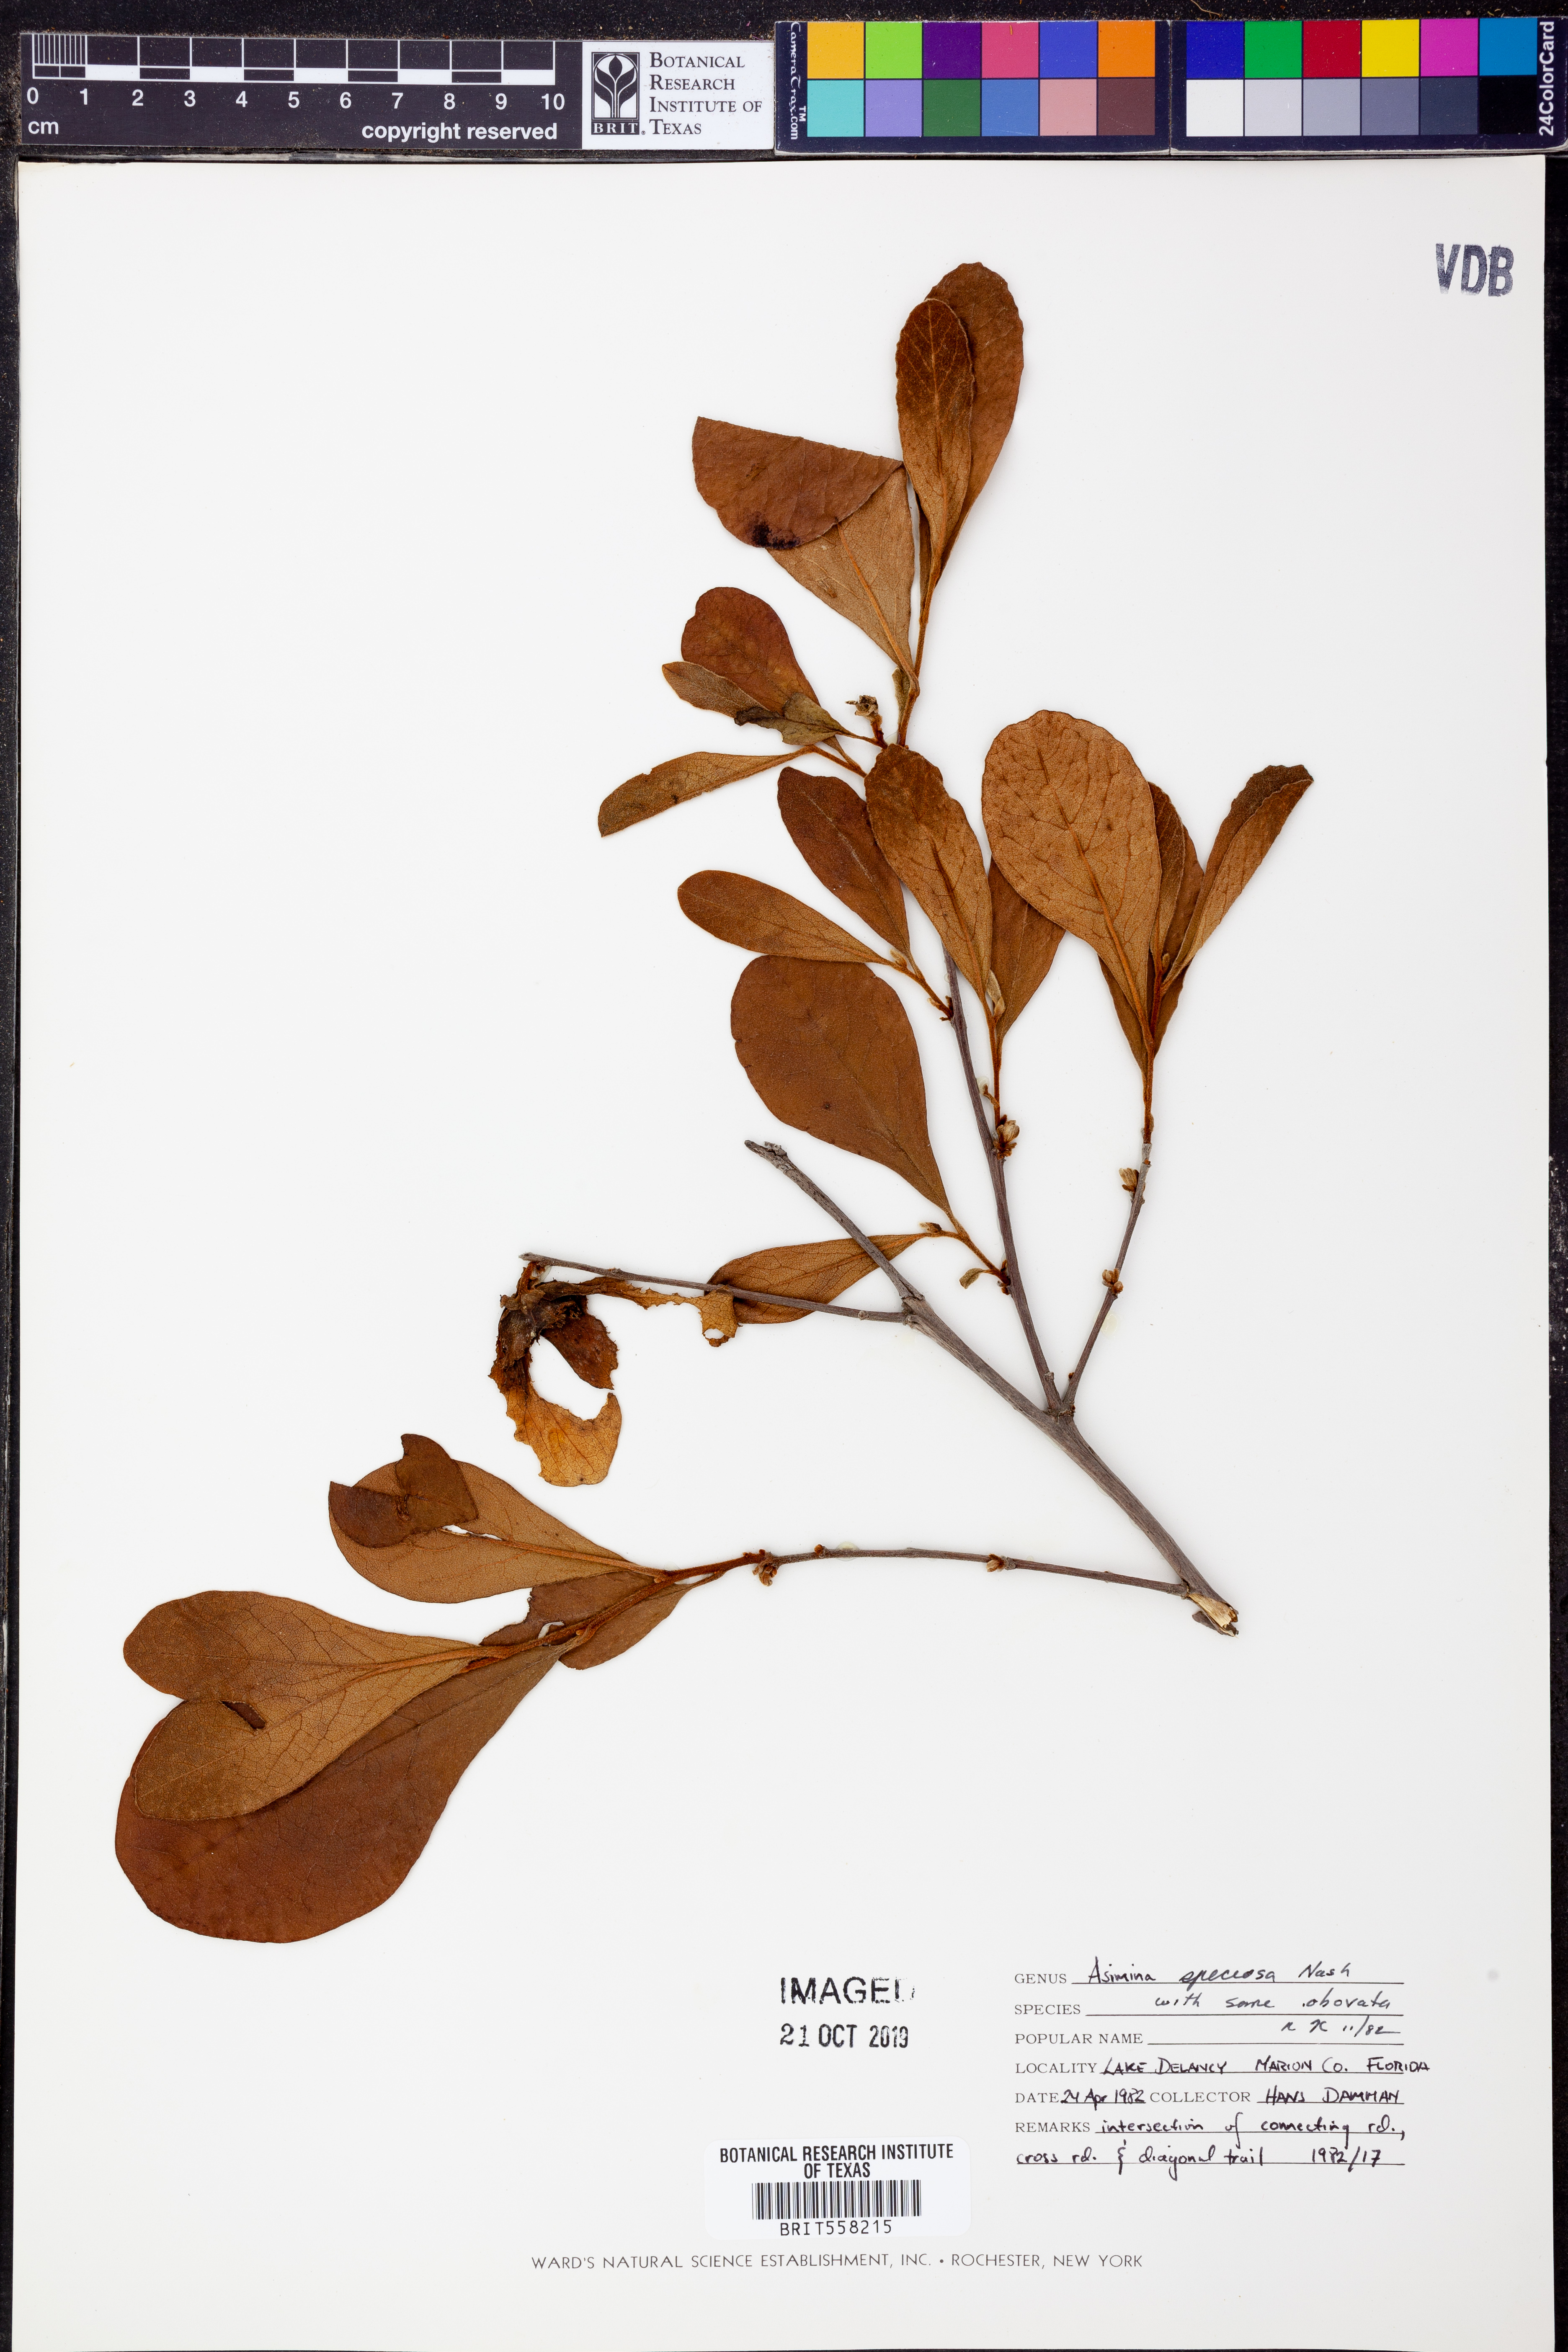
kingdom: Plantae
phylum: Tracheophyta
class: Magnoliopsida
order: Magnoliales
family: Annonaceae
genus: Asimina
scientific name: Asimina speciosa
